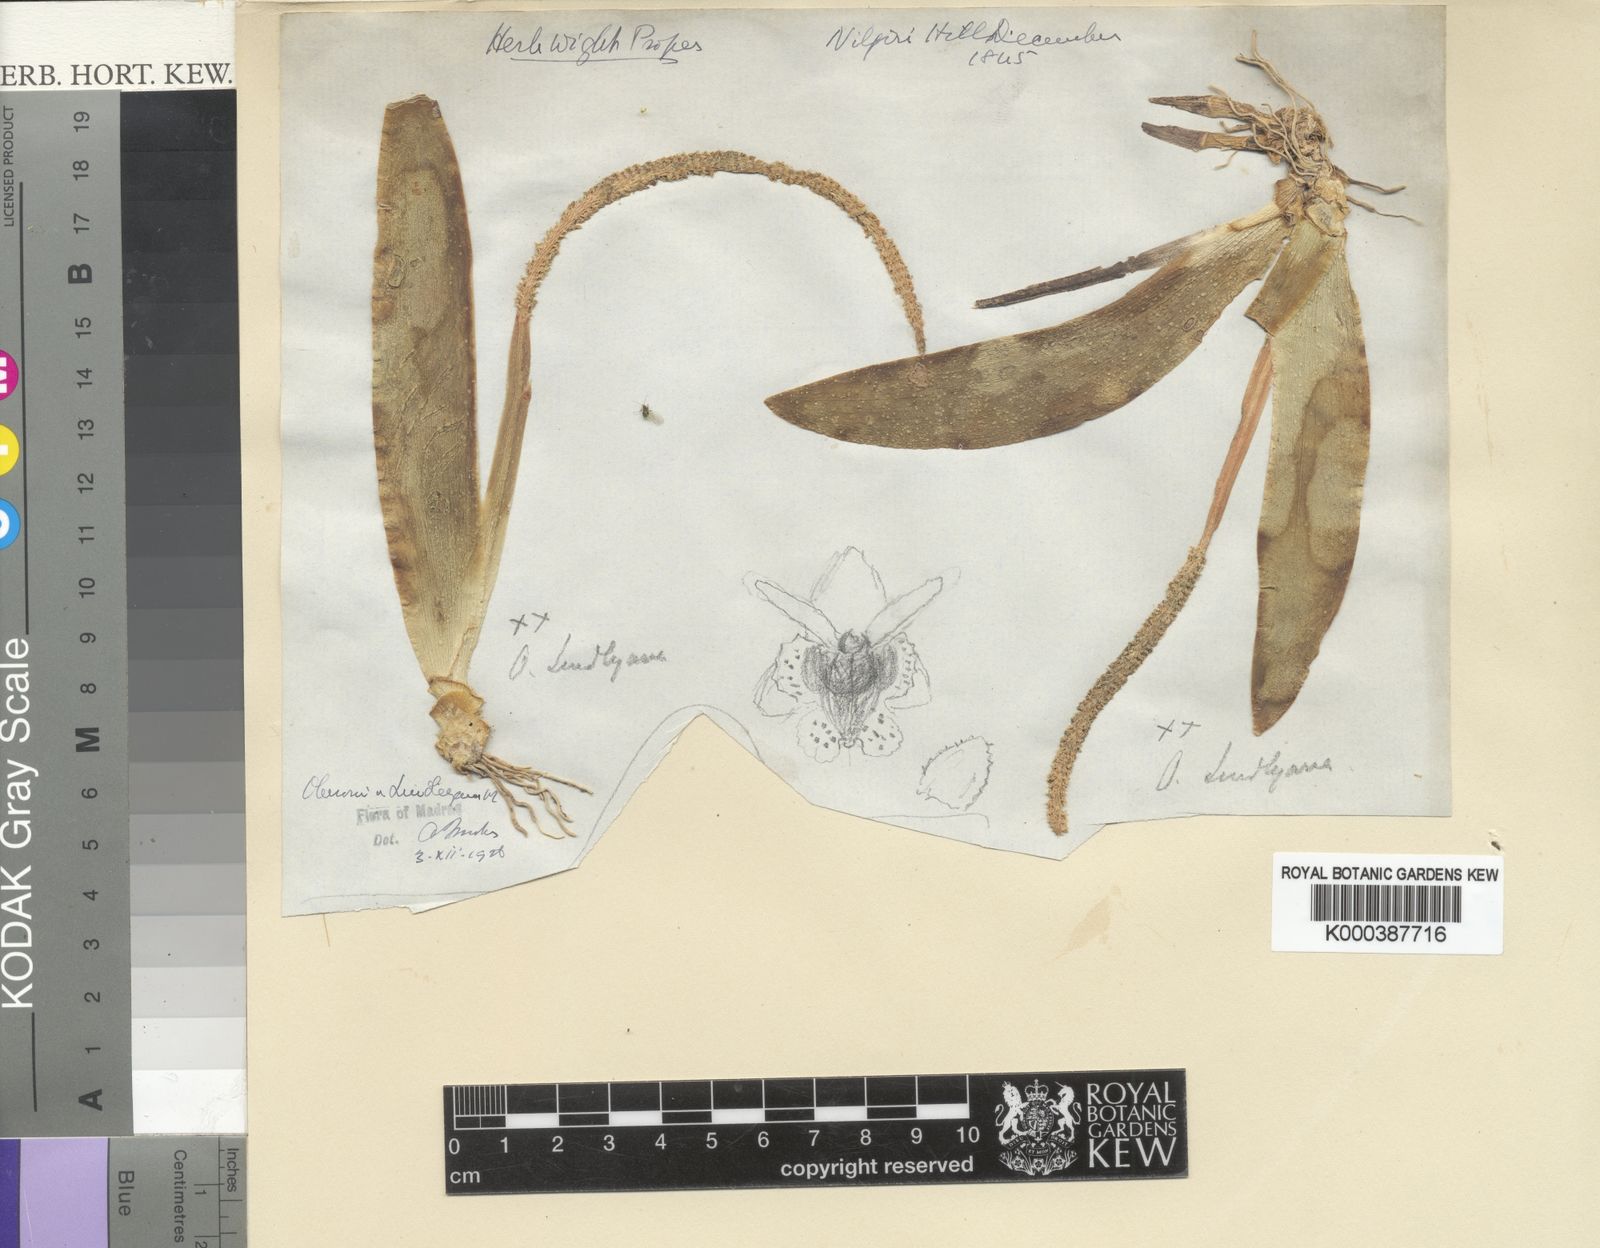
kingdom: Plantae
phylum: Tracheophyta
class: Liliopsida
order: Asparagales
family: Orchidaceae
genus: Oberonia
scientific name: Oberonia brunoniana
